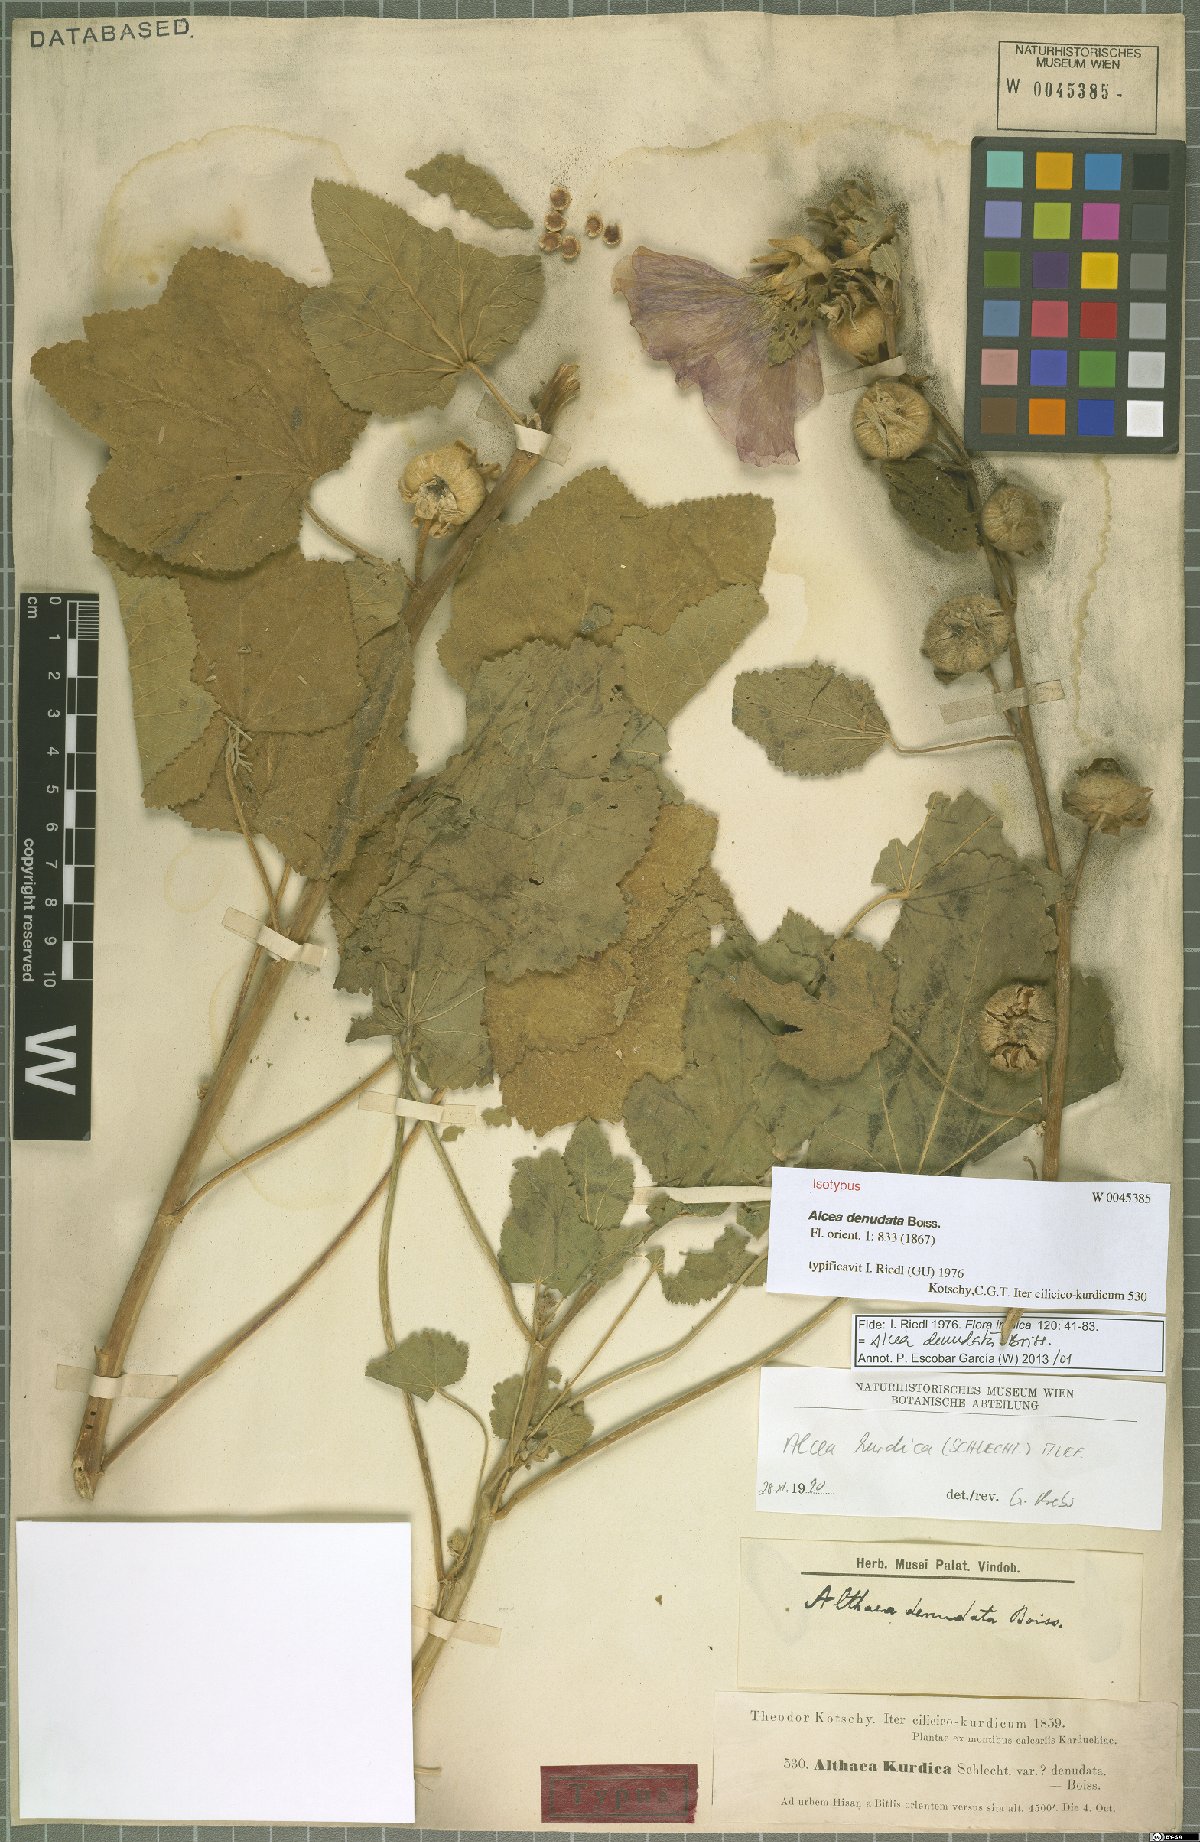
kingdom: Plantae
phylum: Tracheophyta
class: Magnoliopsida
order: Malvales
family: Malvaceae
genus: Alcea
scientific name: Alcea kurdica
